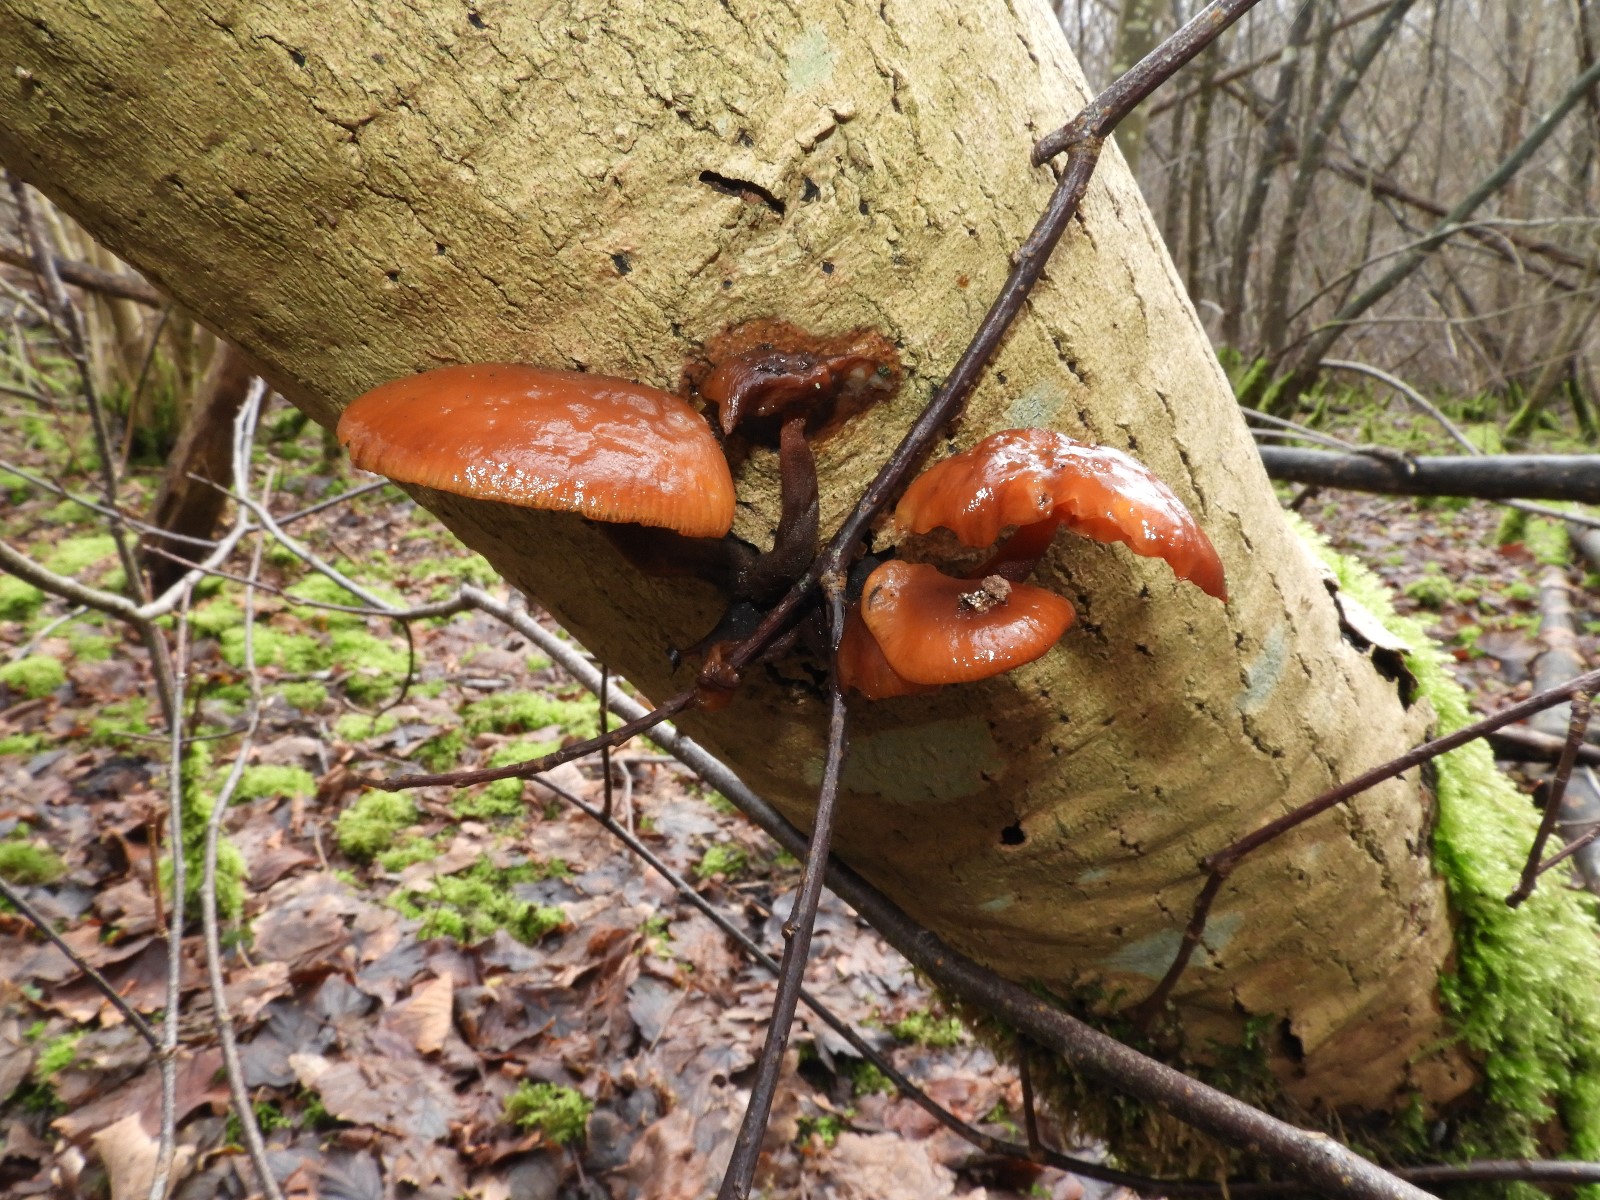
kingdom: Fungi
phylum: Basidiomycota
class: Agaricomycetes
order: Agaricales
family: Physalacriaceae
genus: Flammulina
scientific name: Flammulina velutipes
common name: gul fløjlsfod
